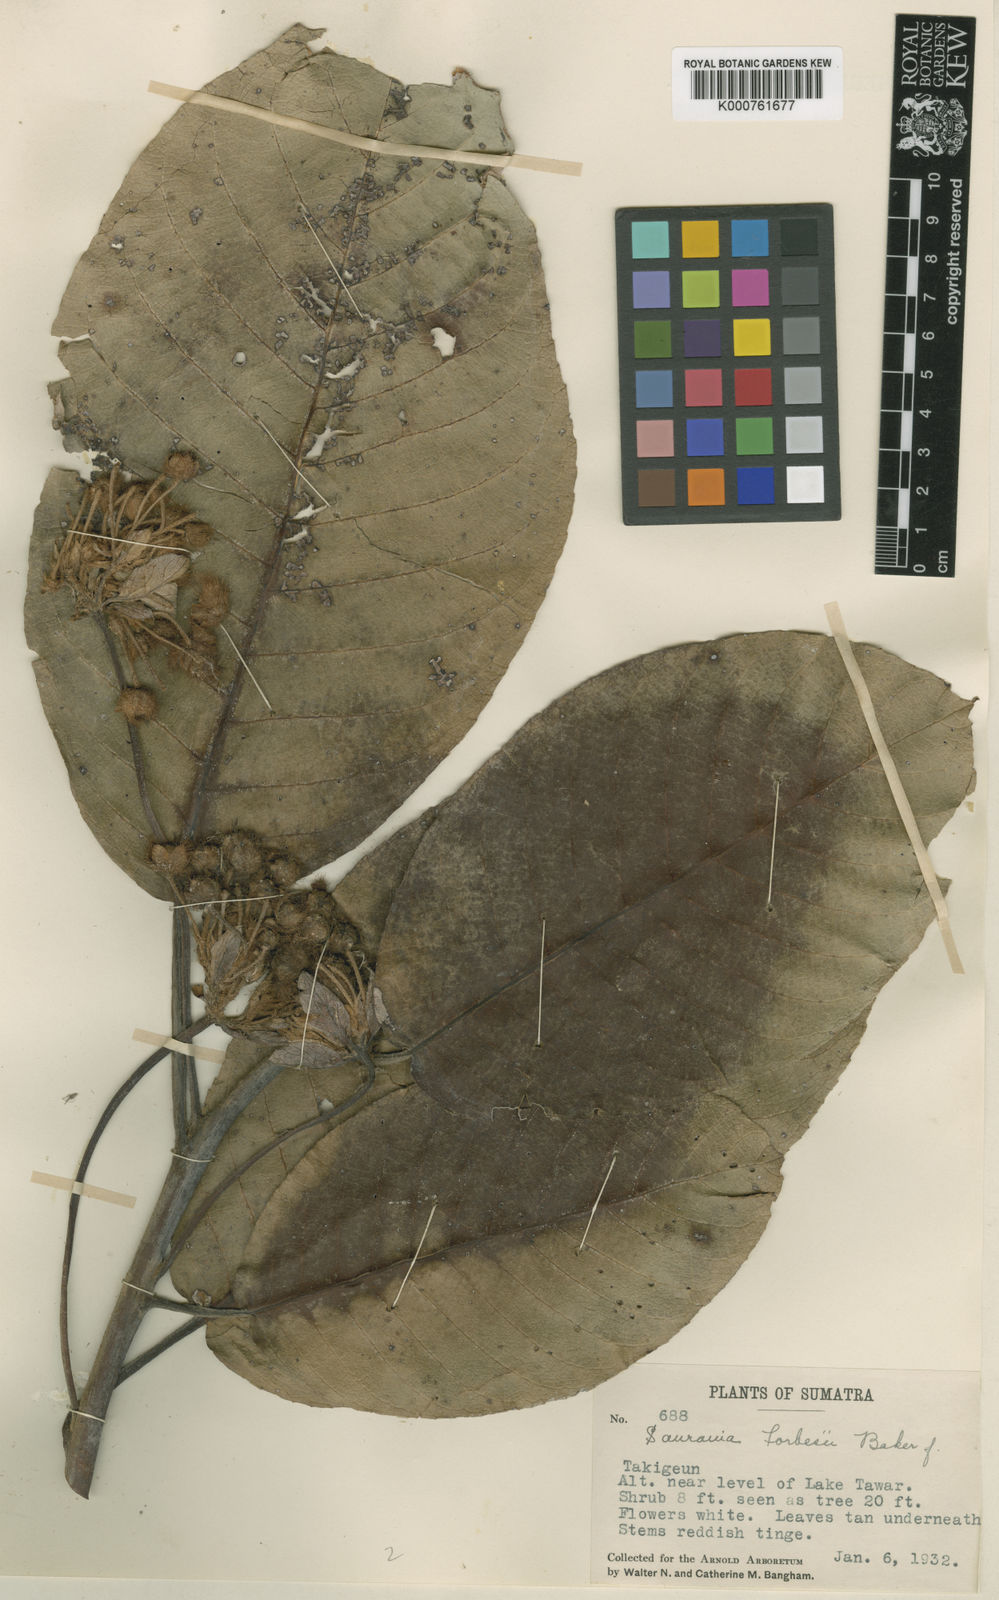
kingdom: Plantae
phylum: Tracheophyta
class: Magnoliopsida
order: Ericales
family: Actinidiaceae
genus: Saurauia
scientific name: Saurauia forbesii
